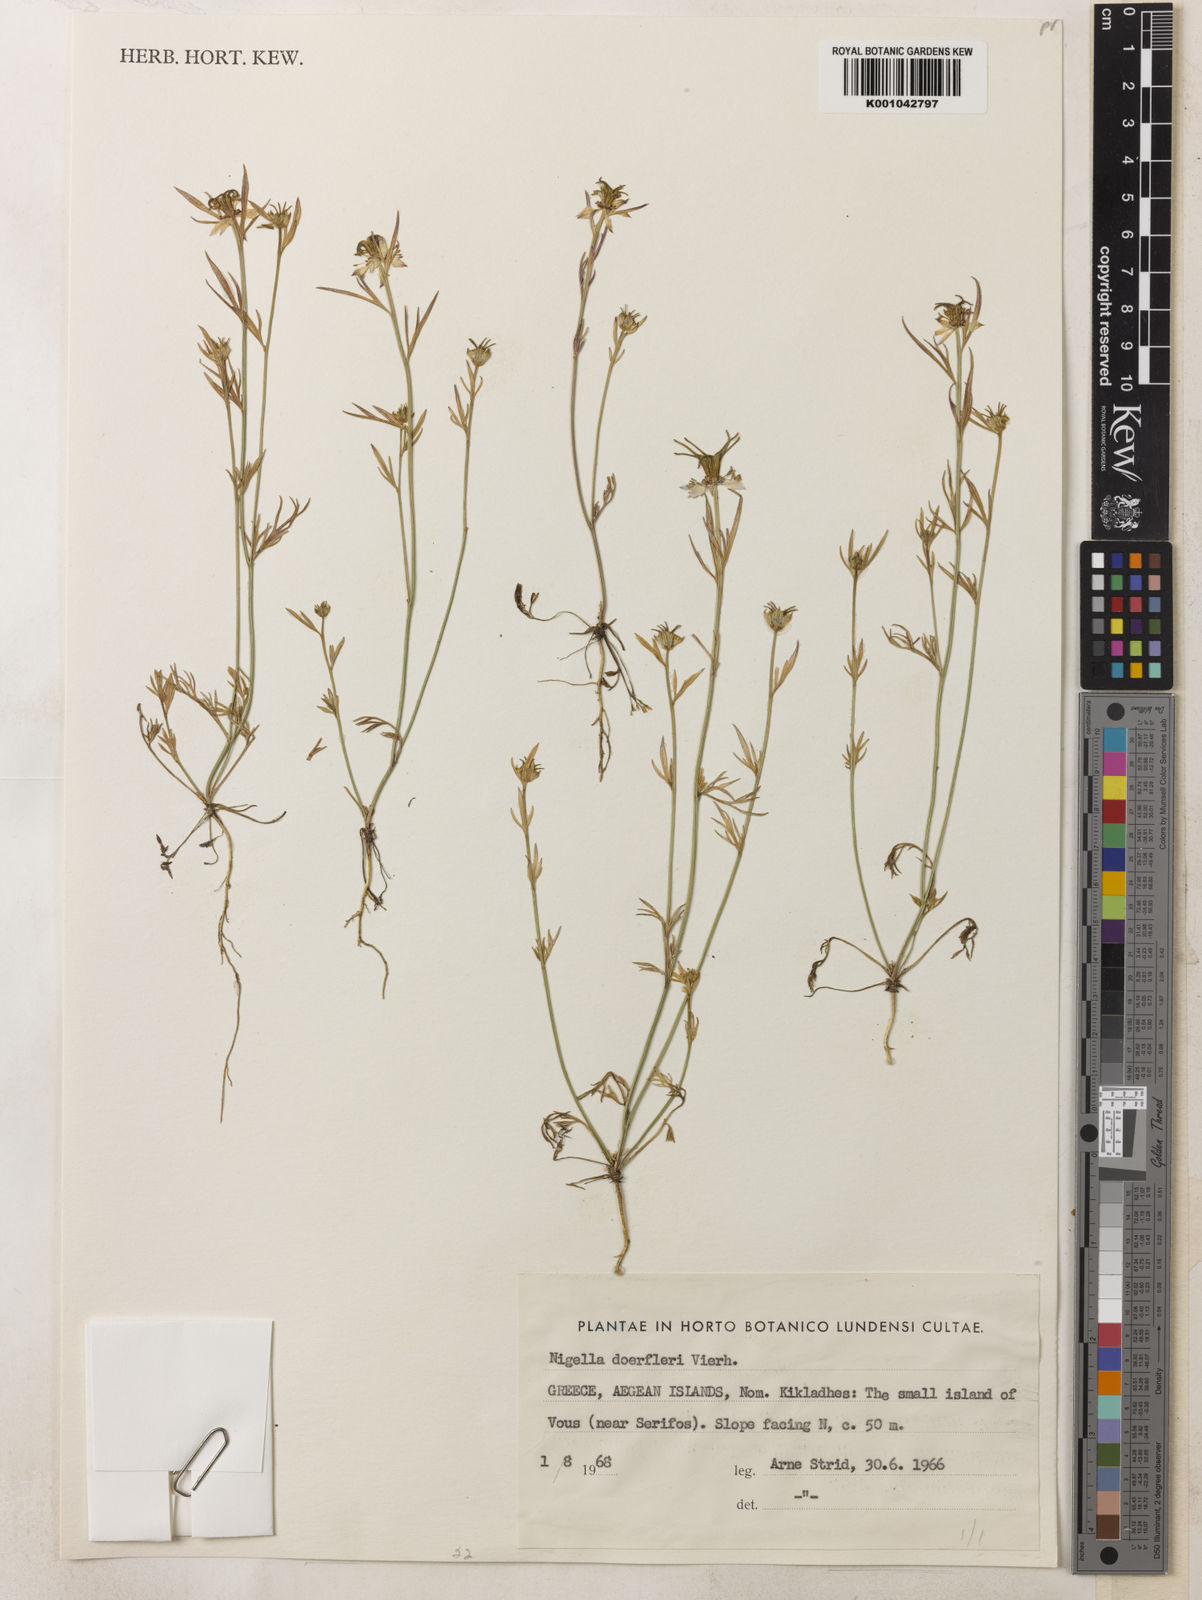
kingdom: Plantae
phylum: Tracheophyta
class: Magnoliopsida
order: Ranunculales
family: Ranunculaceae
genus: Nigella
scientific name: Nigella doerfleri
